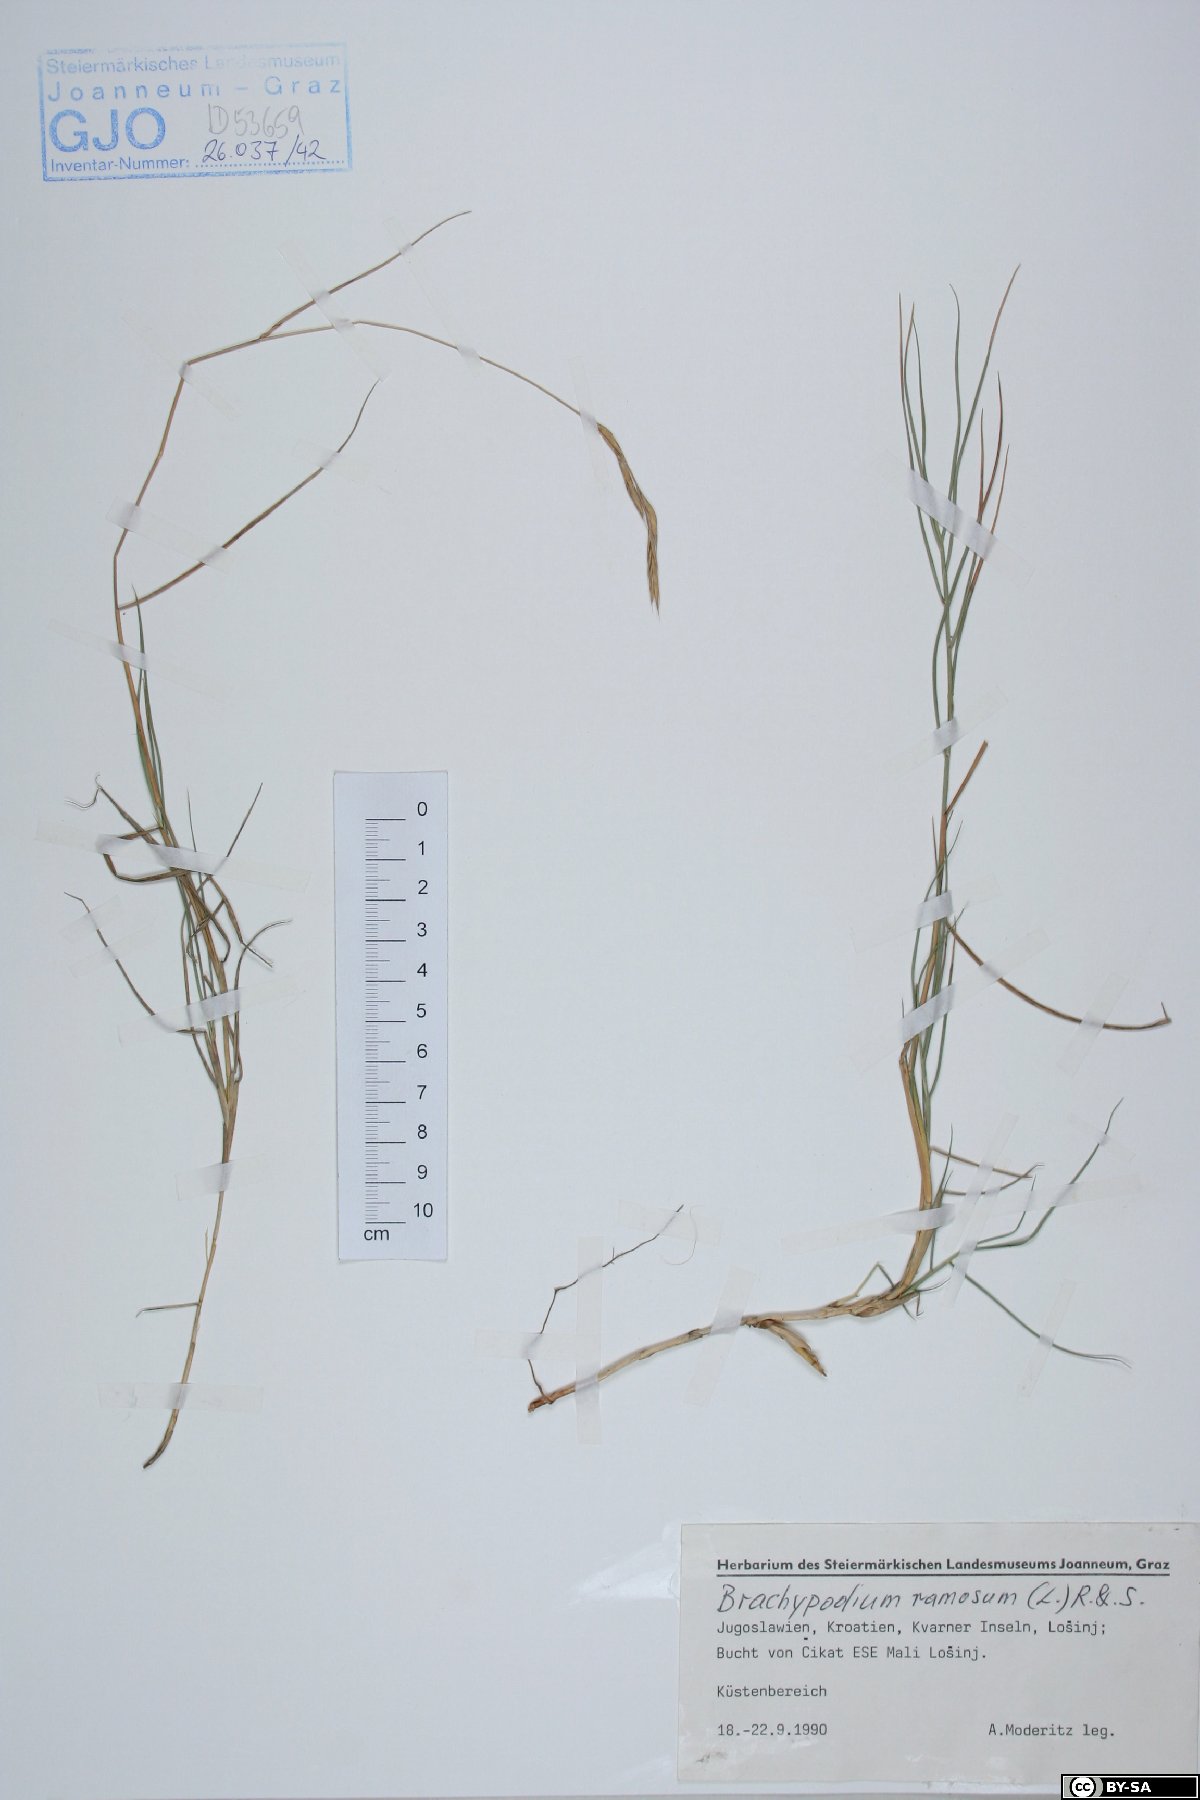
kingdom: Plantae
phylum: Tracheophyta
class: Liliopsida
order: Poales
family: Poaceae
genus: Brachypodium
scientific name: Brachypodium retusum
